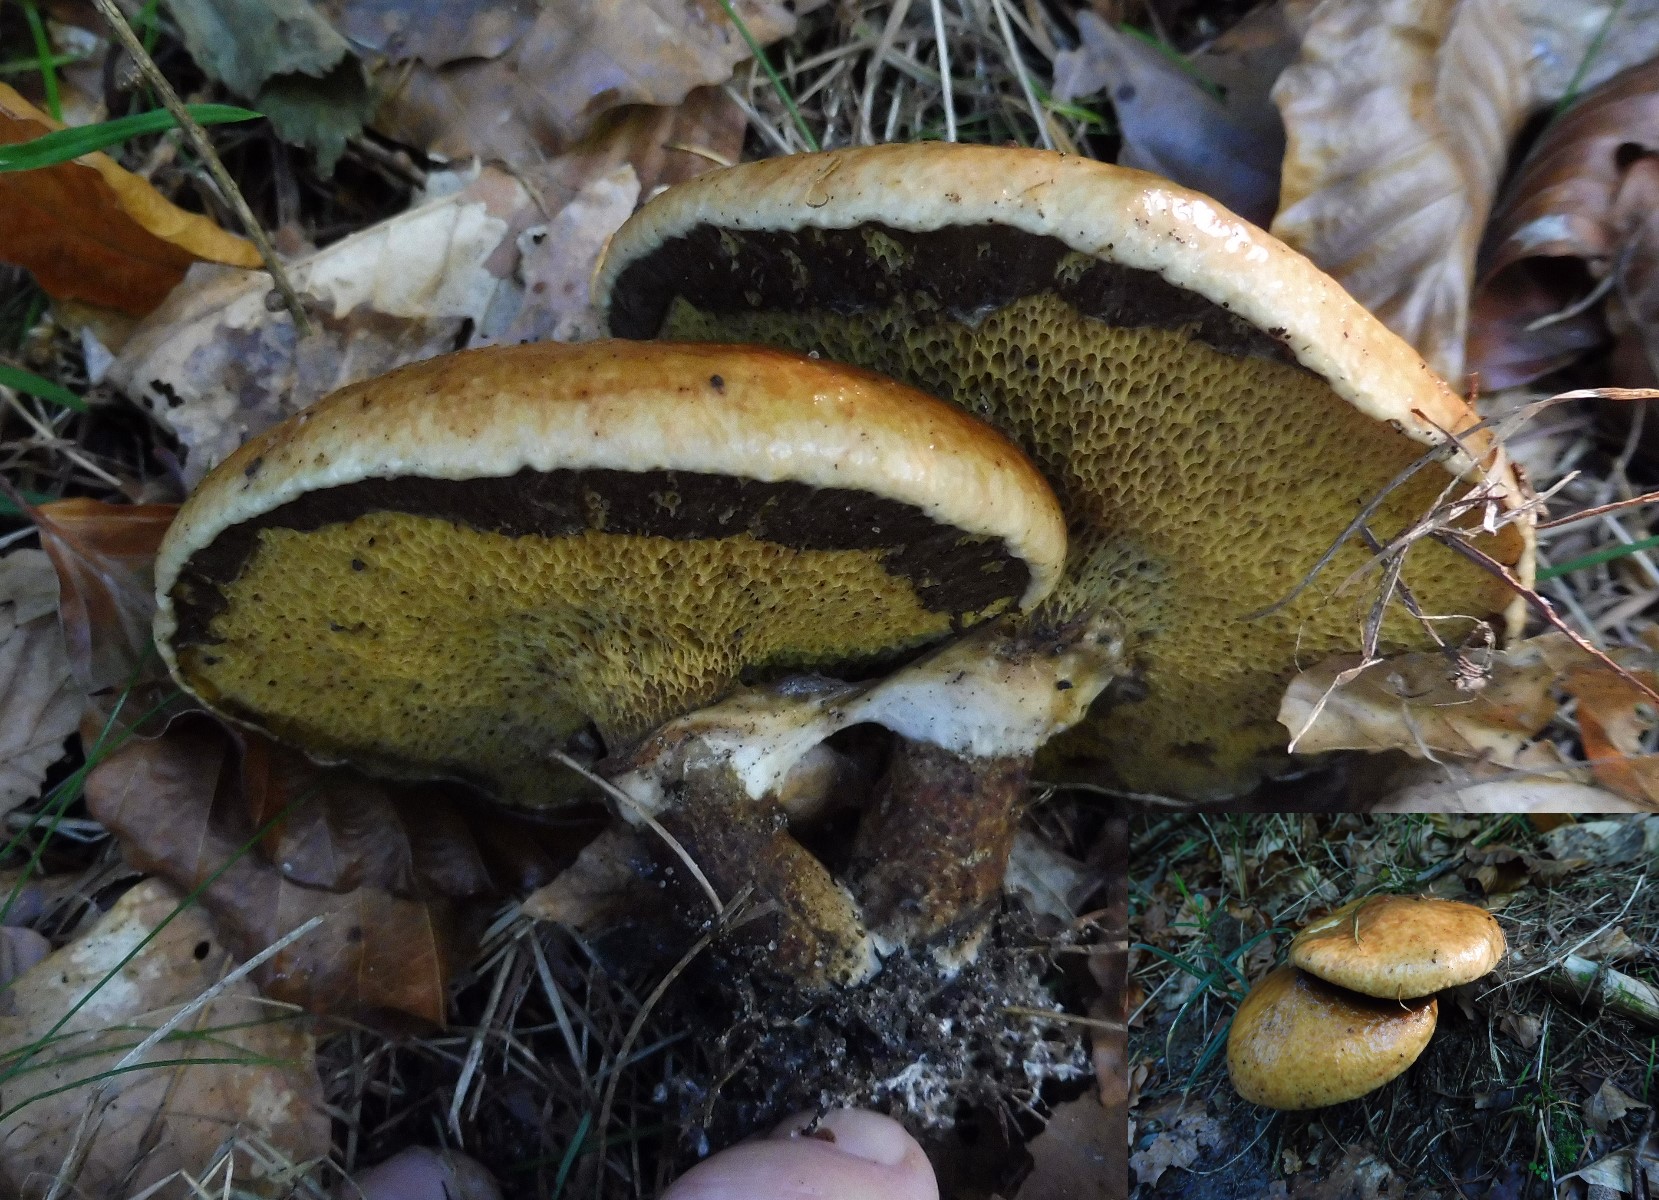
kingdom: Fungi
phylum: Basidiomycota
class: Agaricomycetes
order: Boletales
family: Suillaceae
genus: Suillus
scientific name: Suillus grevillei
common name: lærke-slimrørhat
